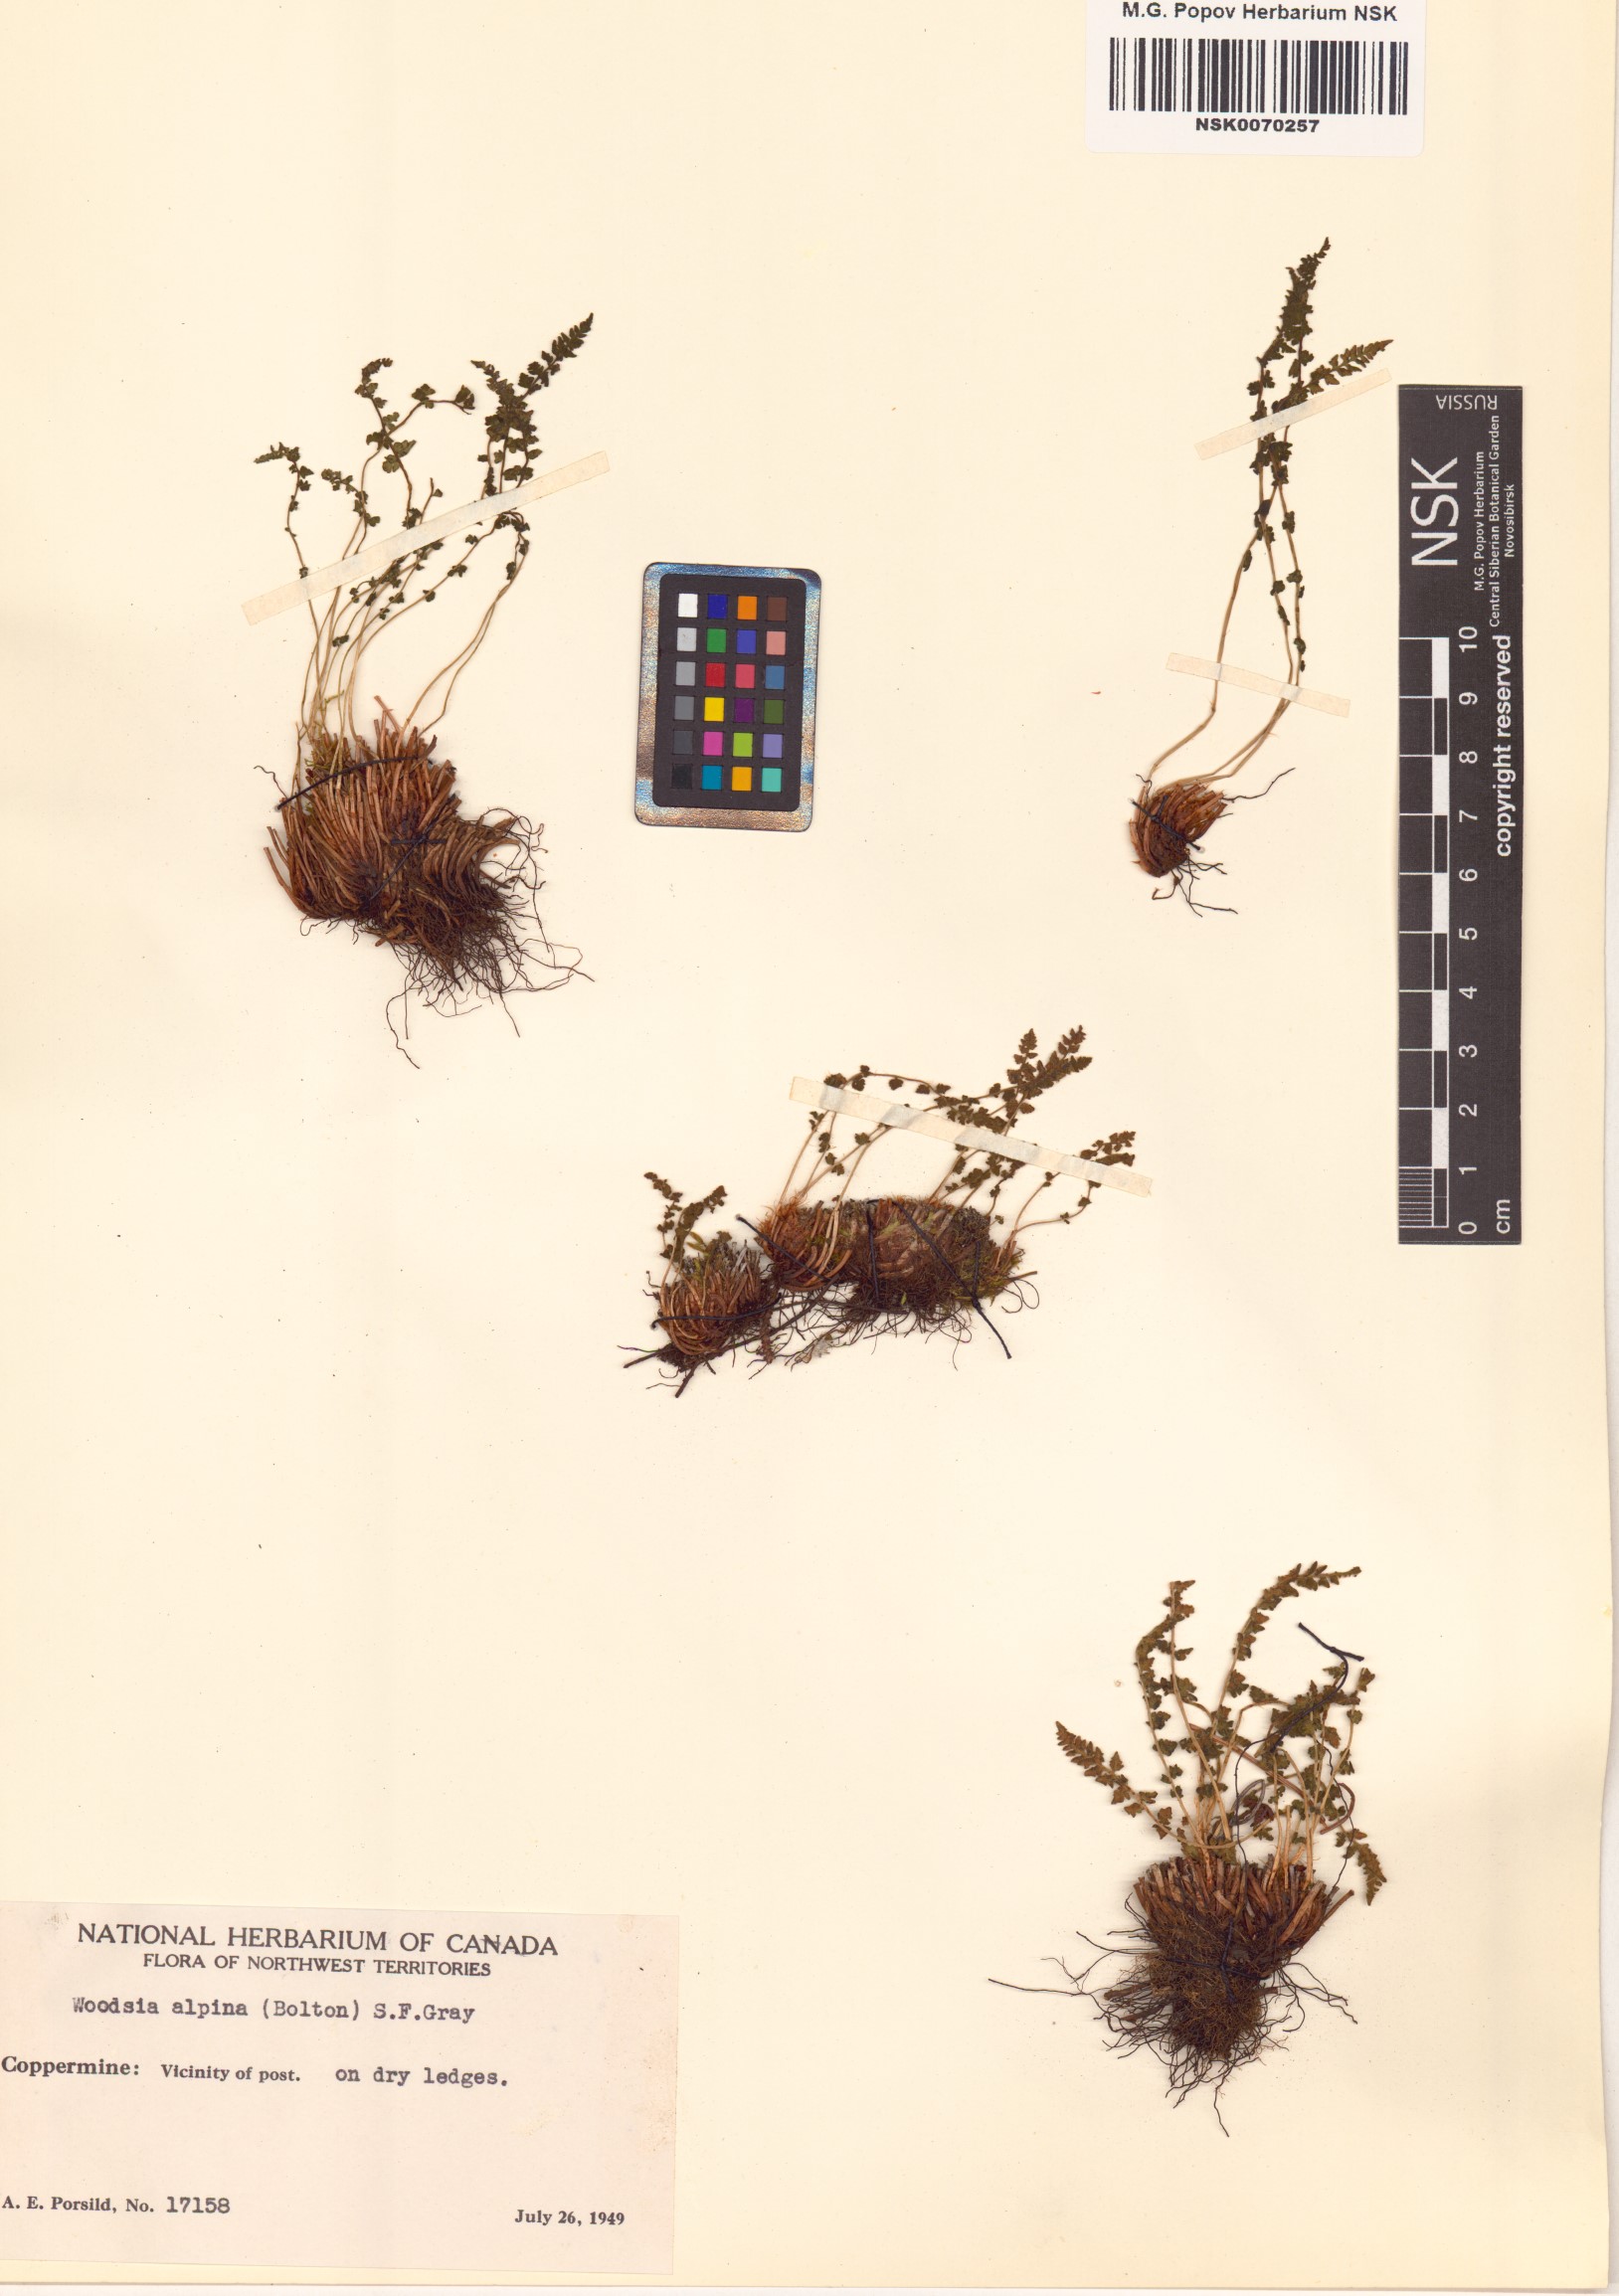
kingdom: Plantae
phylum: Tracheophyta
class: Polypodiopsida
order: Polypodiales
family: Woodsiaceae
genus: Woodsia
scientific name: Woodsia alpina
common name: Alpine woodsia
